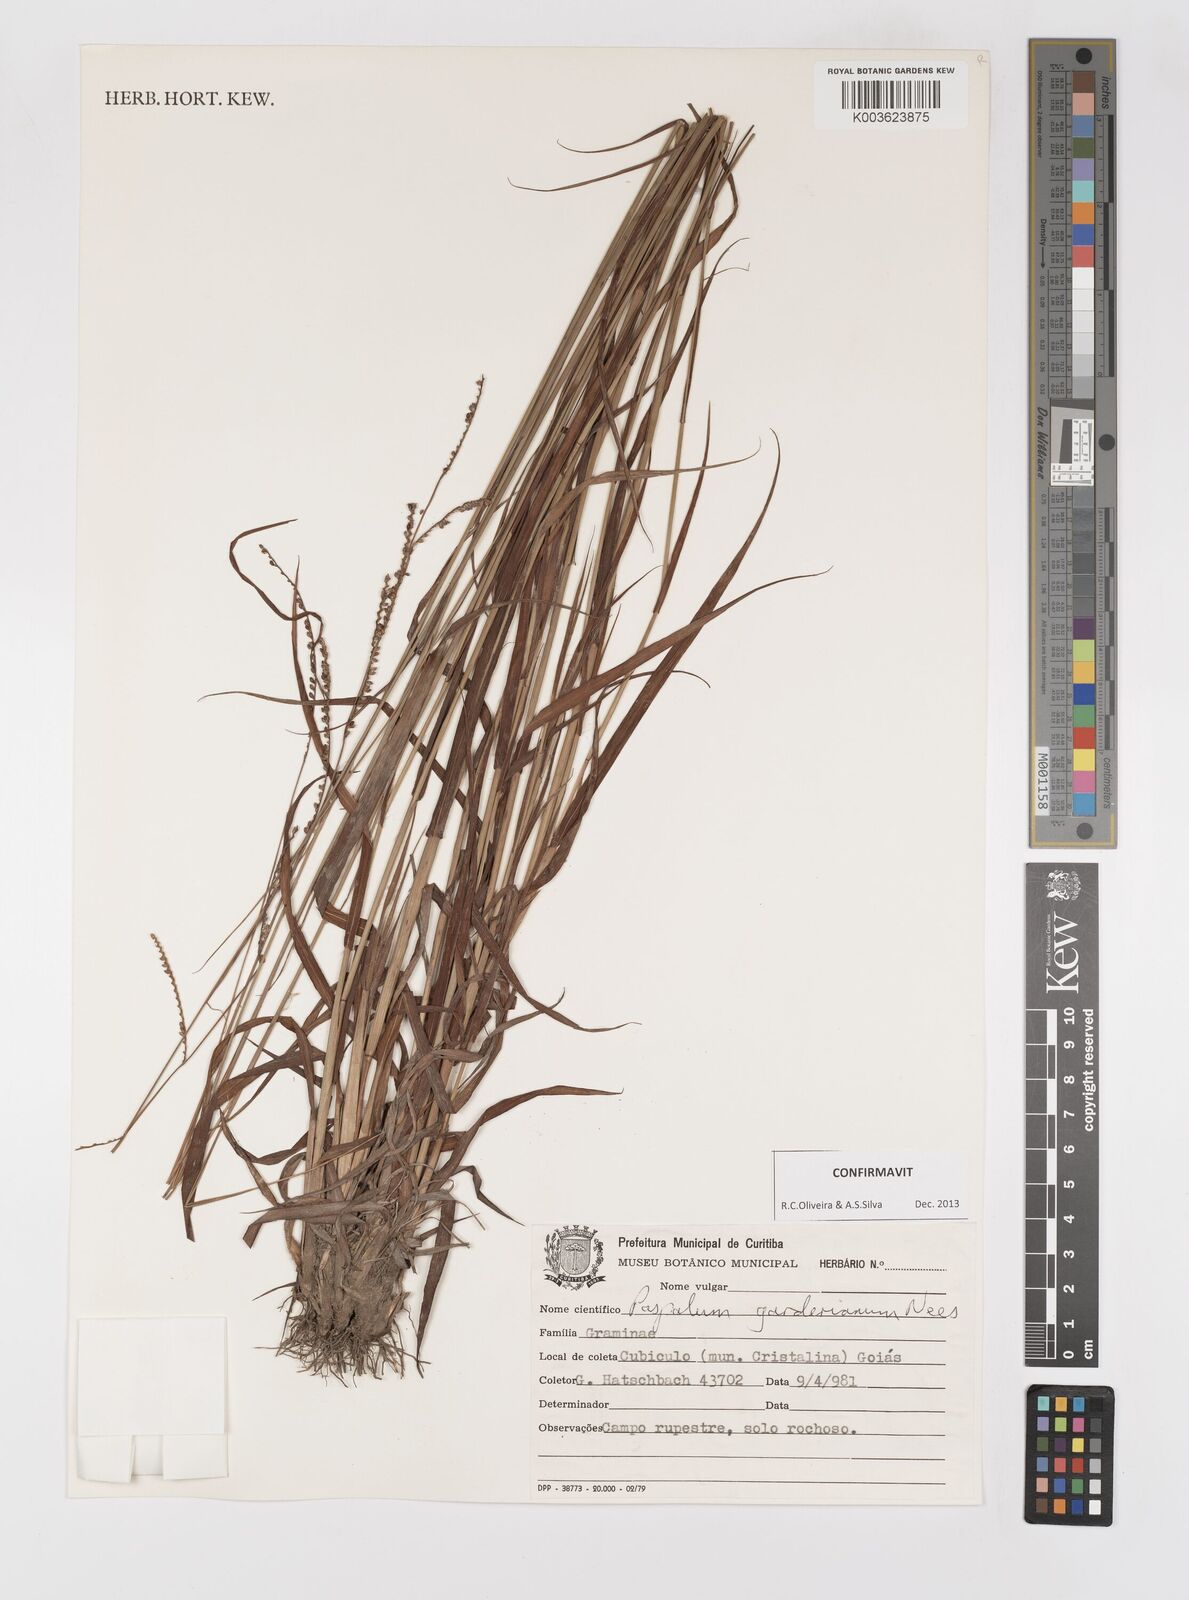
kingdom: Plantae
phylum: Tracheophyta
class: Liliopsida
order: Poales
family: Poaceae
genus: Paspalum
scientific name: Paspalum gardnerianum
